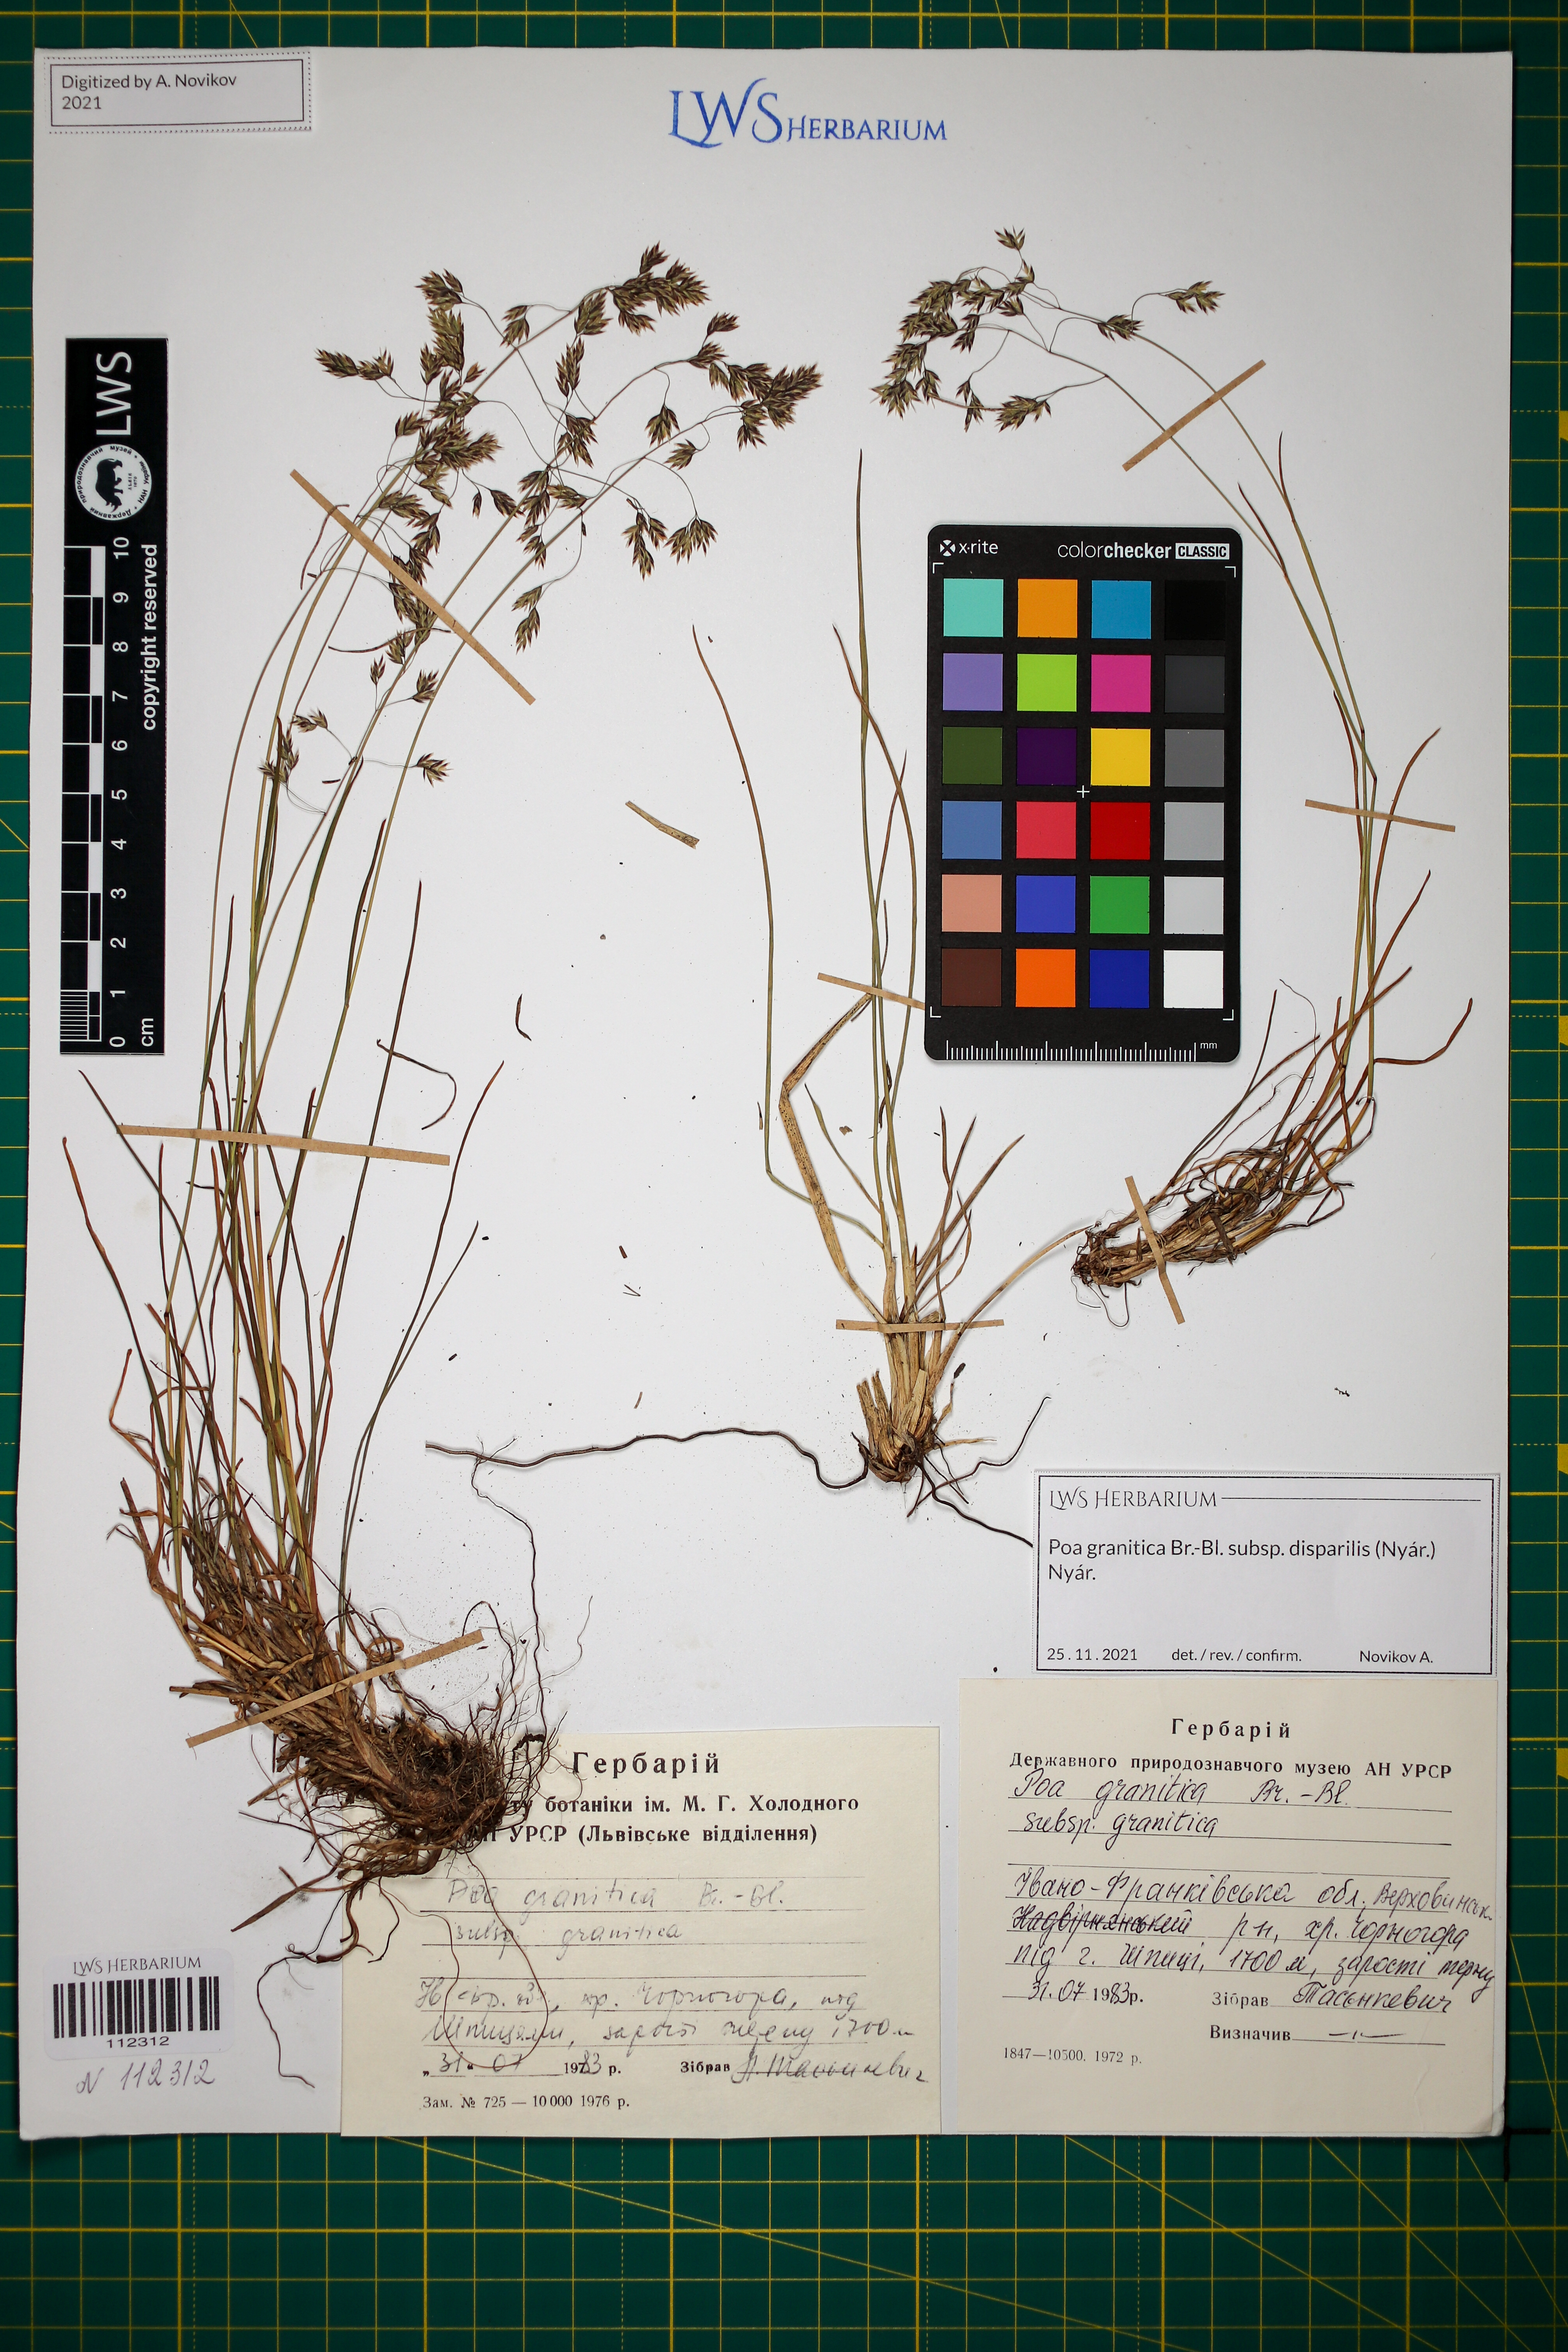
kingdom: Plantae
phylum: Tracheophyta
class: Liliopsida
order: Poales
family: Poaceae
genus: Poa
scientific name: Poa granitica
